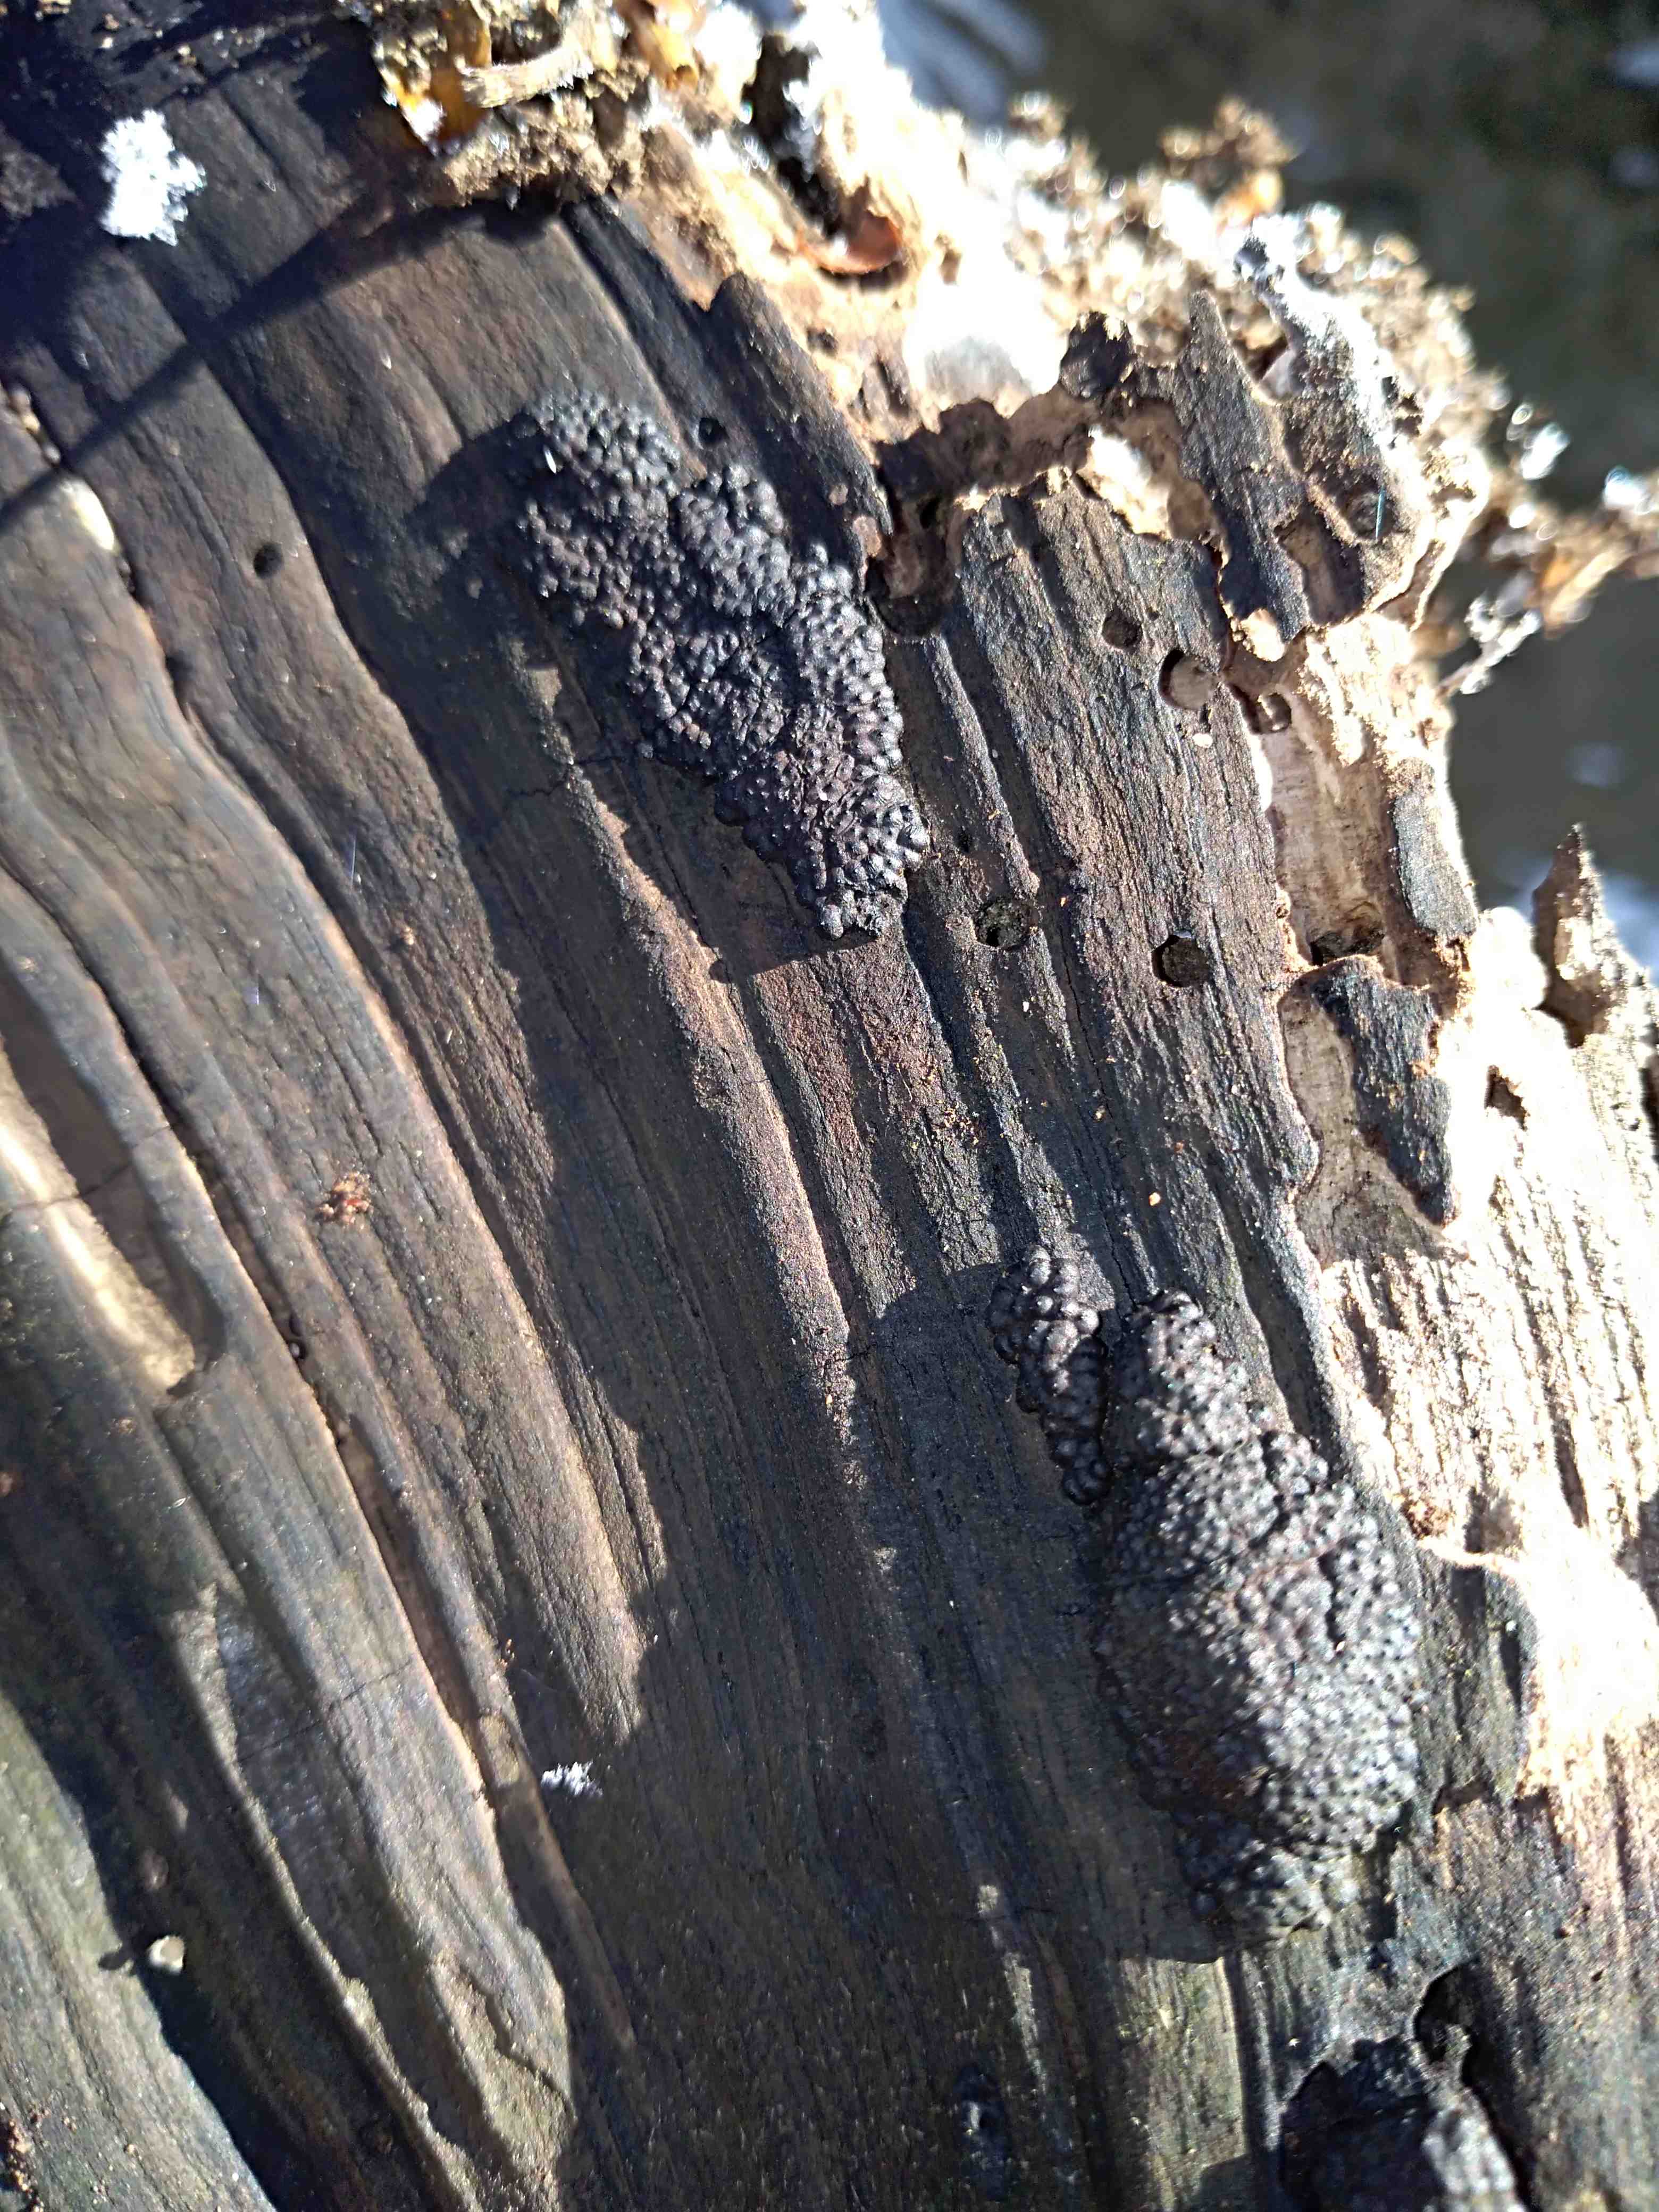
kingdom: Fungi
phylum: Ascomycota
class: Sordariomycetes
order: Xylariales
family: Hypoxylaceae
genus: Jackrogersella
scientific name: Jackrogersella
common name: kulbær
